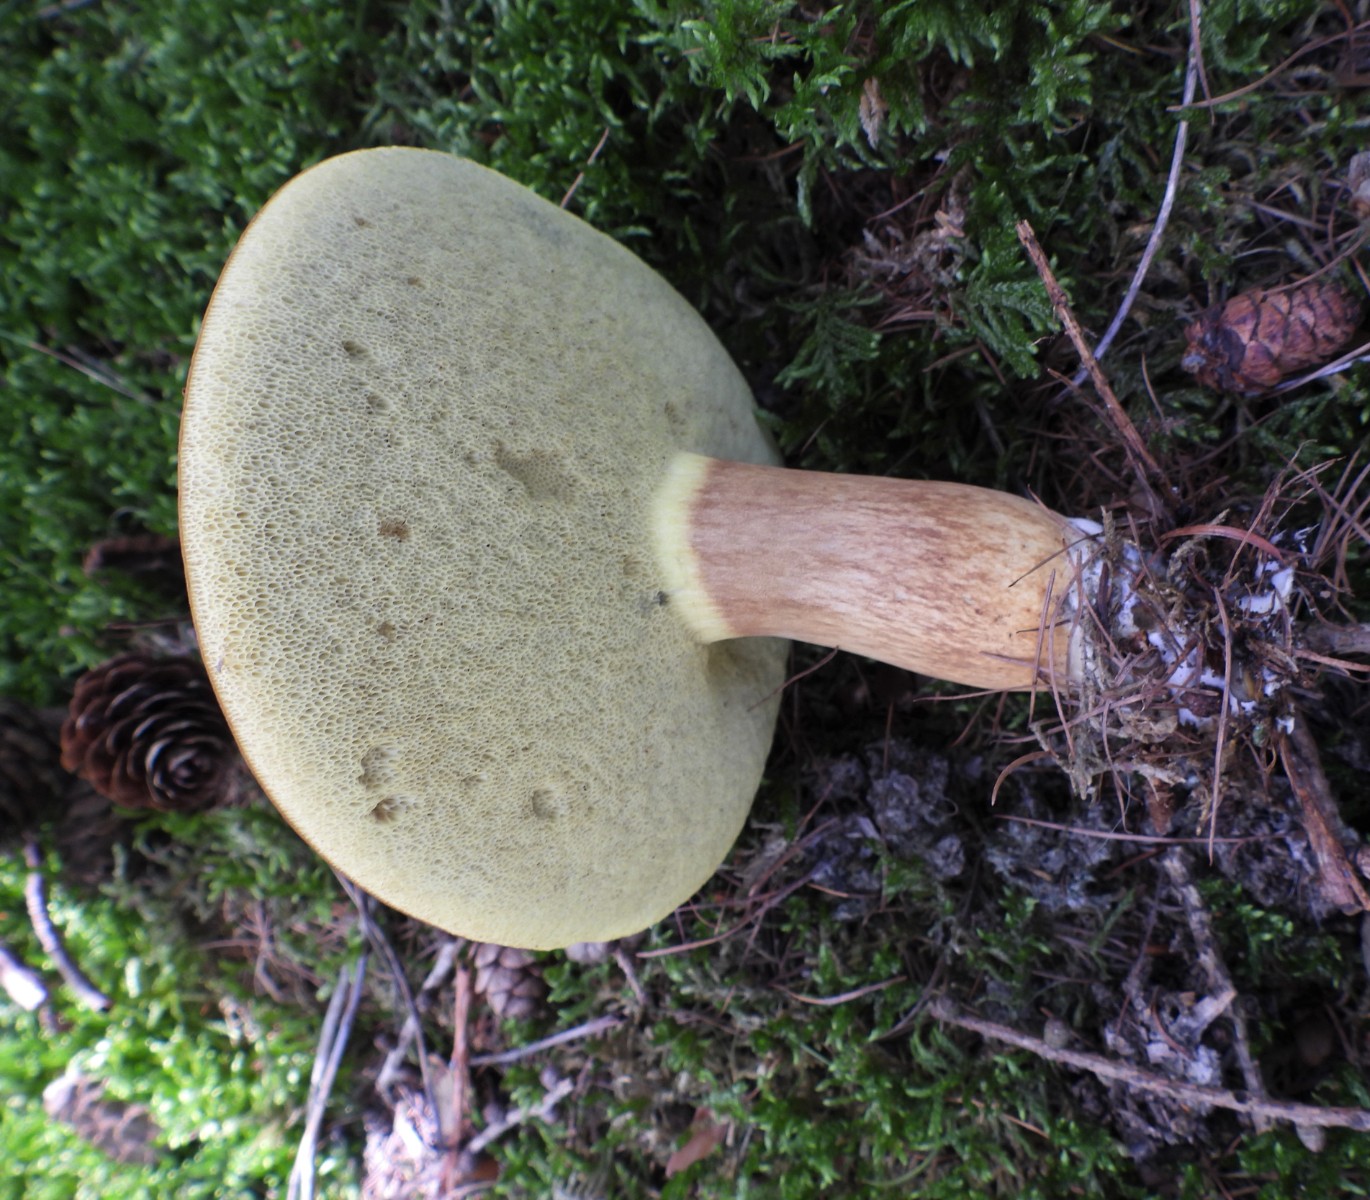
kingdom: Fungi
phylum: Basidiomycota
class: Agaricomycetes
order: Boletales
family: Boletaceae
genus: Imleria
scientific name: Imleria badia
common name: brunstokket rørhat
